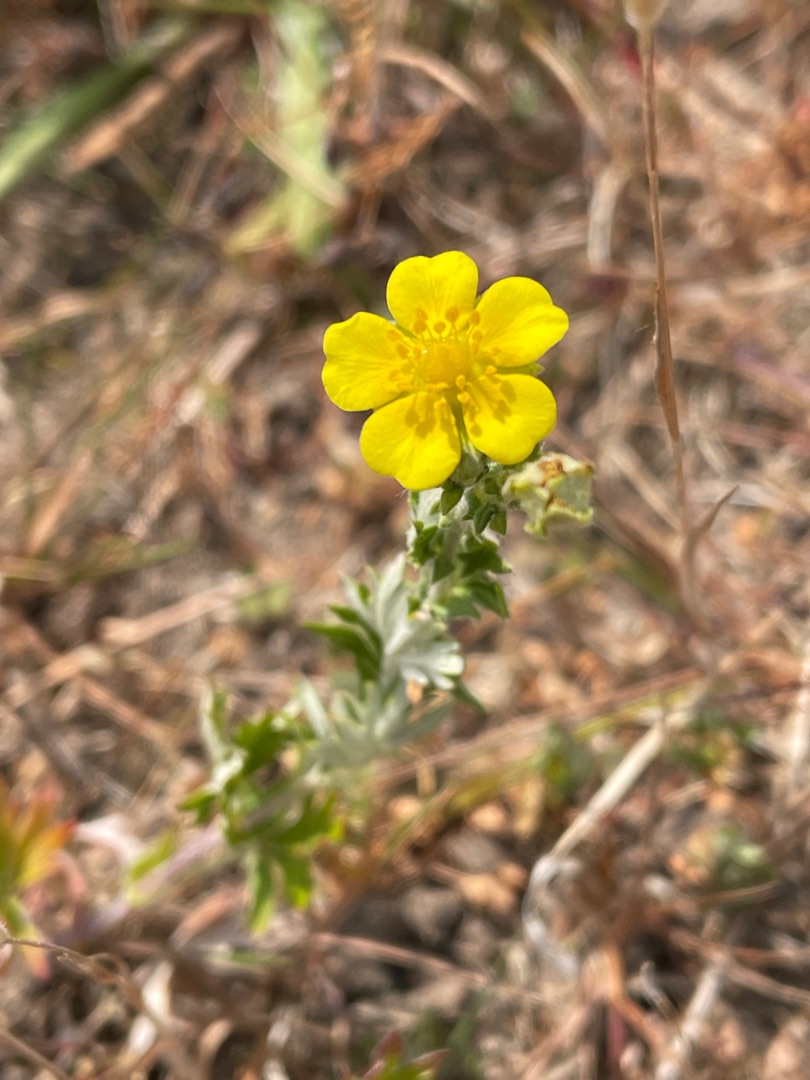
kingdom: Plantae
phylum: Tracheophyta
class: Magnoliopsida
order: Rosales
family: Rosaceae
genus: Potentilla
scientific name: Potentilla argentea
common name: Sølv-potentil
